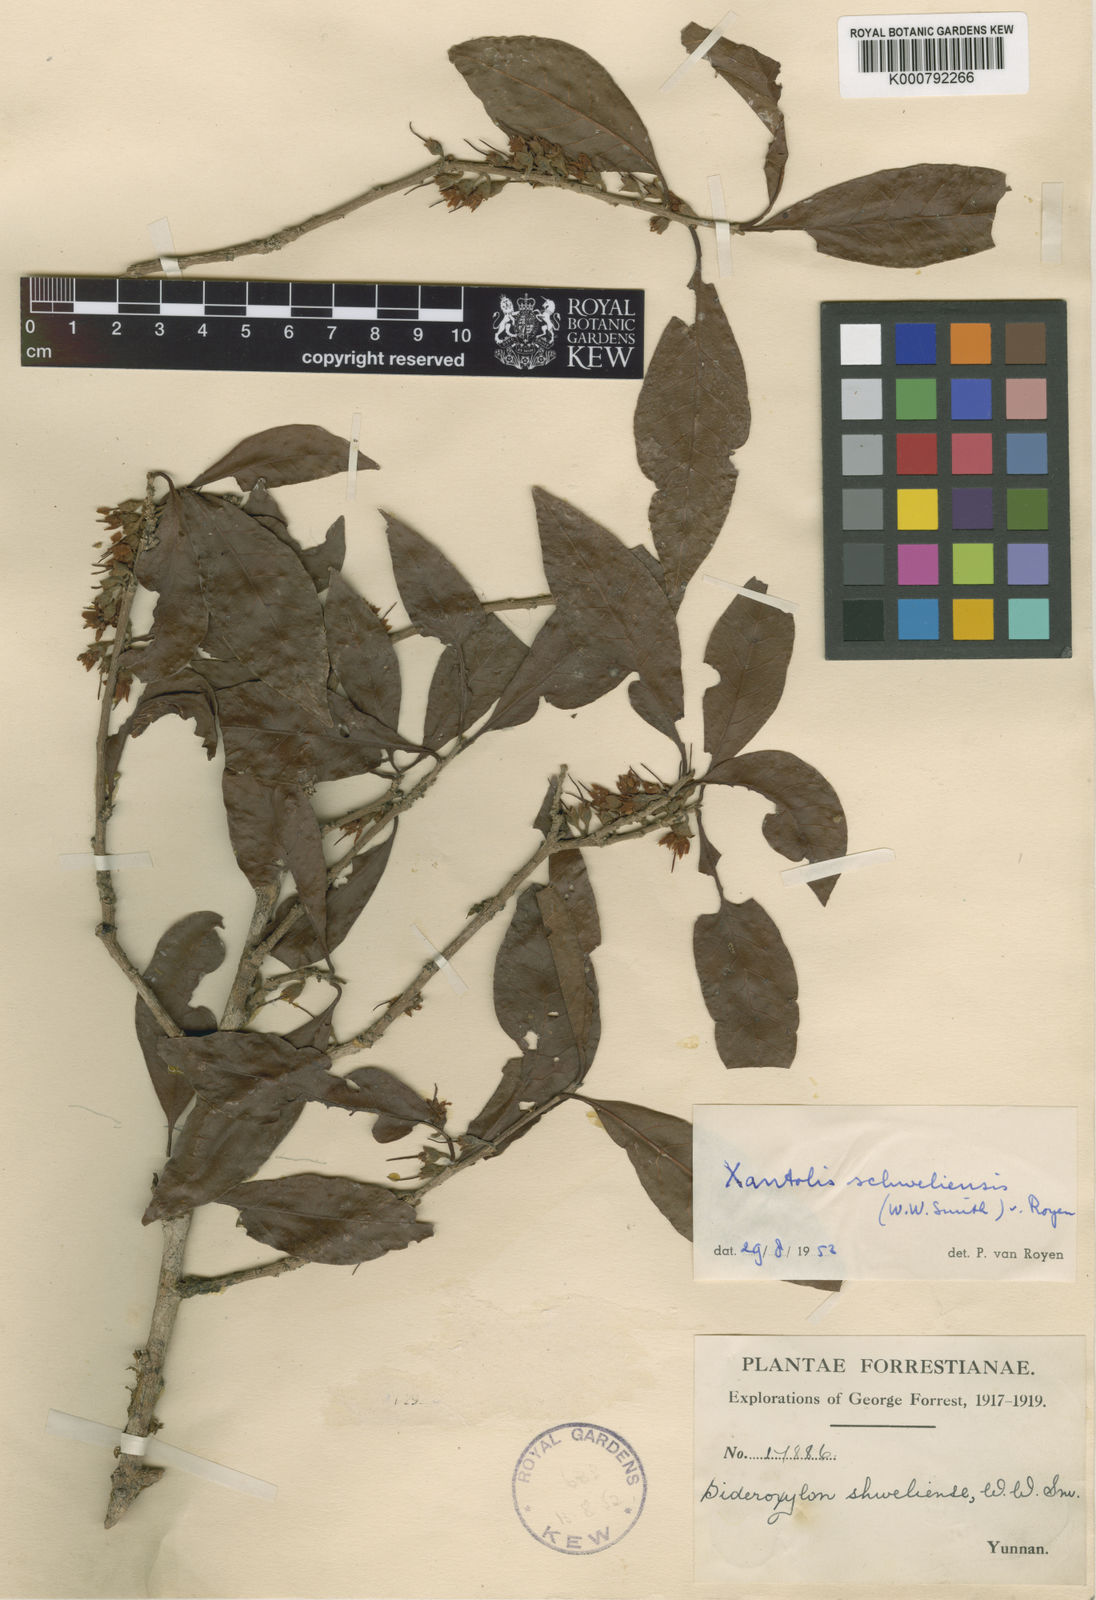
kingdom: Plantae
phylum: Tracheophyta
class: Magnoliopsida
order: Ericales
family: Sapotaceae
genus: Xantolis
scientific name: Xantolis shweliensis
